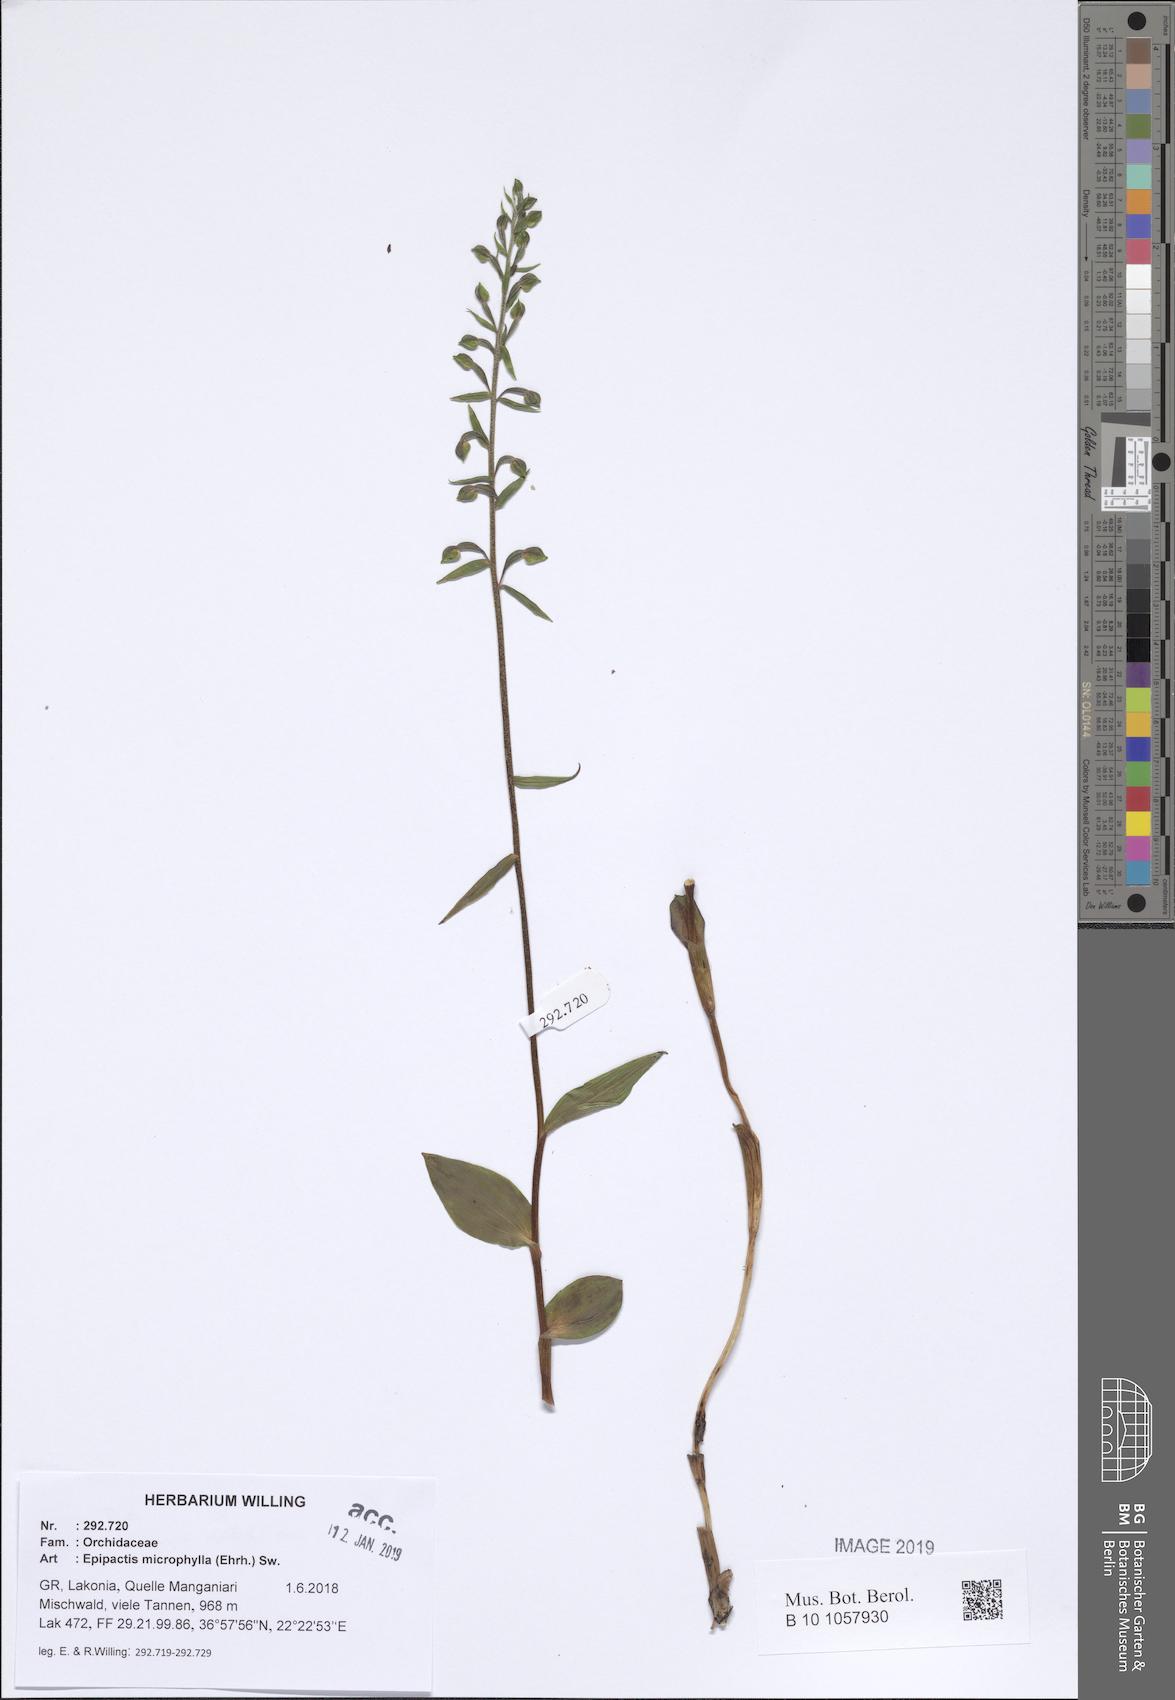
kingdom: Plantae
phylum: Tracheophyta
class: Liliopsida
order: Asparagales
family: Orchidaceae
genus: Epipactis
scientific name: Epipactis microphylla
